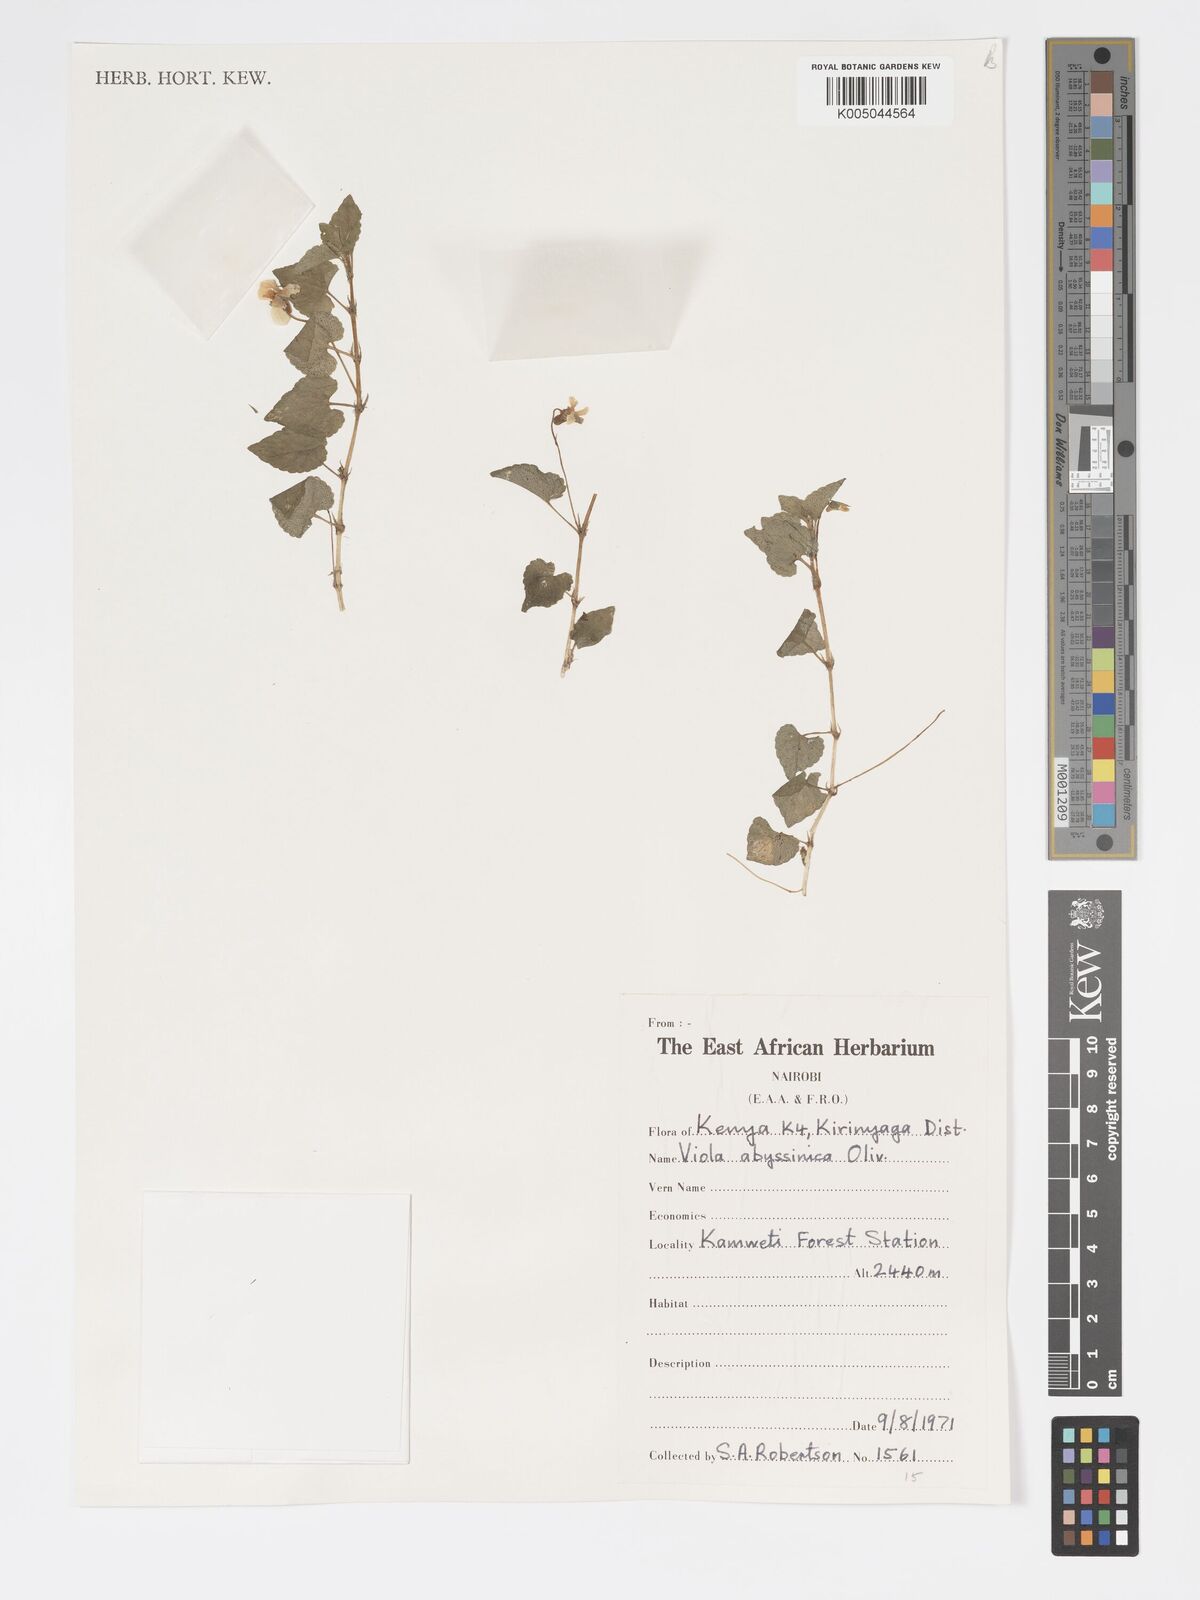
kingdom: Plantae
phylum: Tracheophyta
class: Magnoliopsida
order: Malpighiales
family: Violaceae
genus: Viola
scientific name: Viola abyssinica
